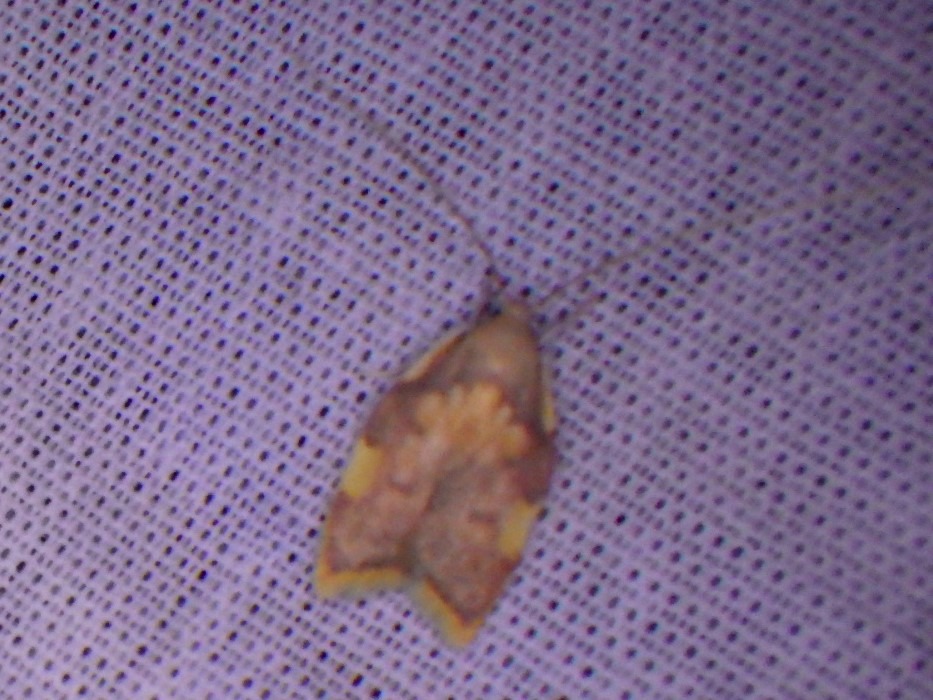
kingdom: Animalia
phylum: Arthropoda
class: Insecta
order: Lepidoptera
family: Peleopodidae
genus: Carcina
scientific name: Carcina quercana
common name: Egeprydvinge
